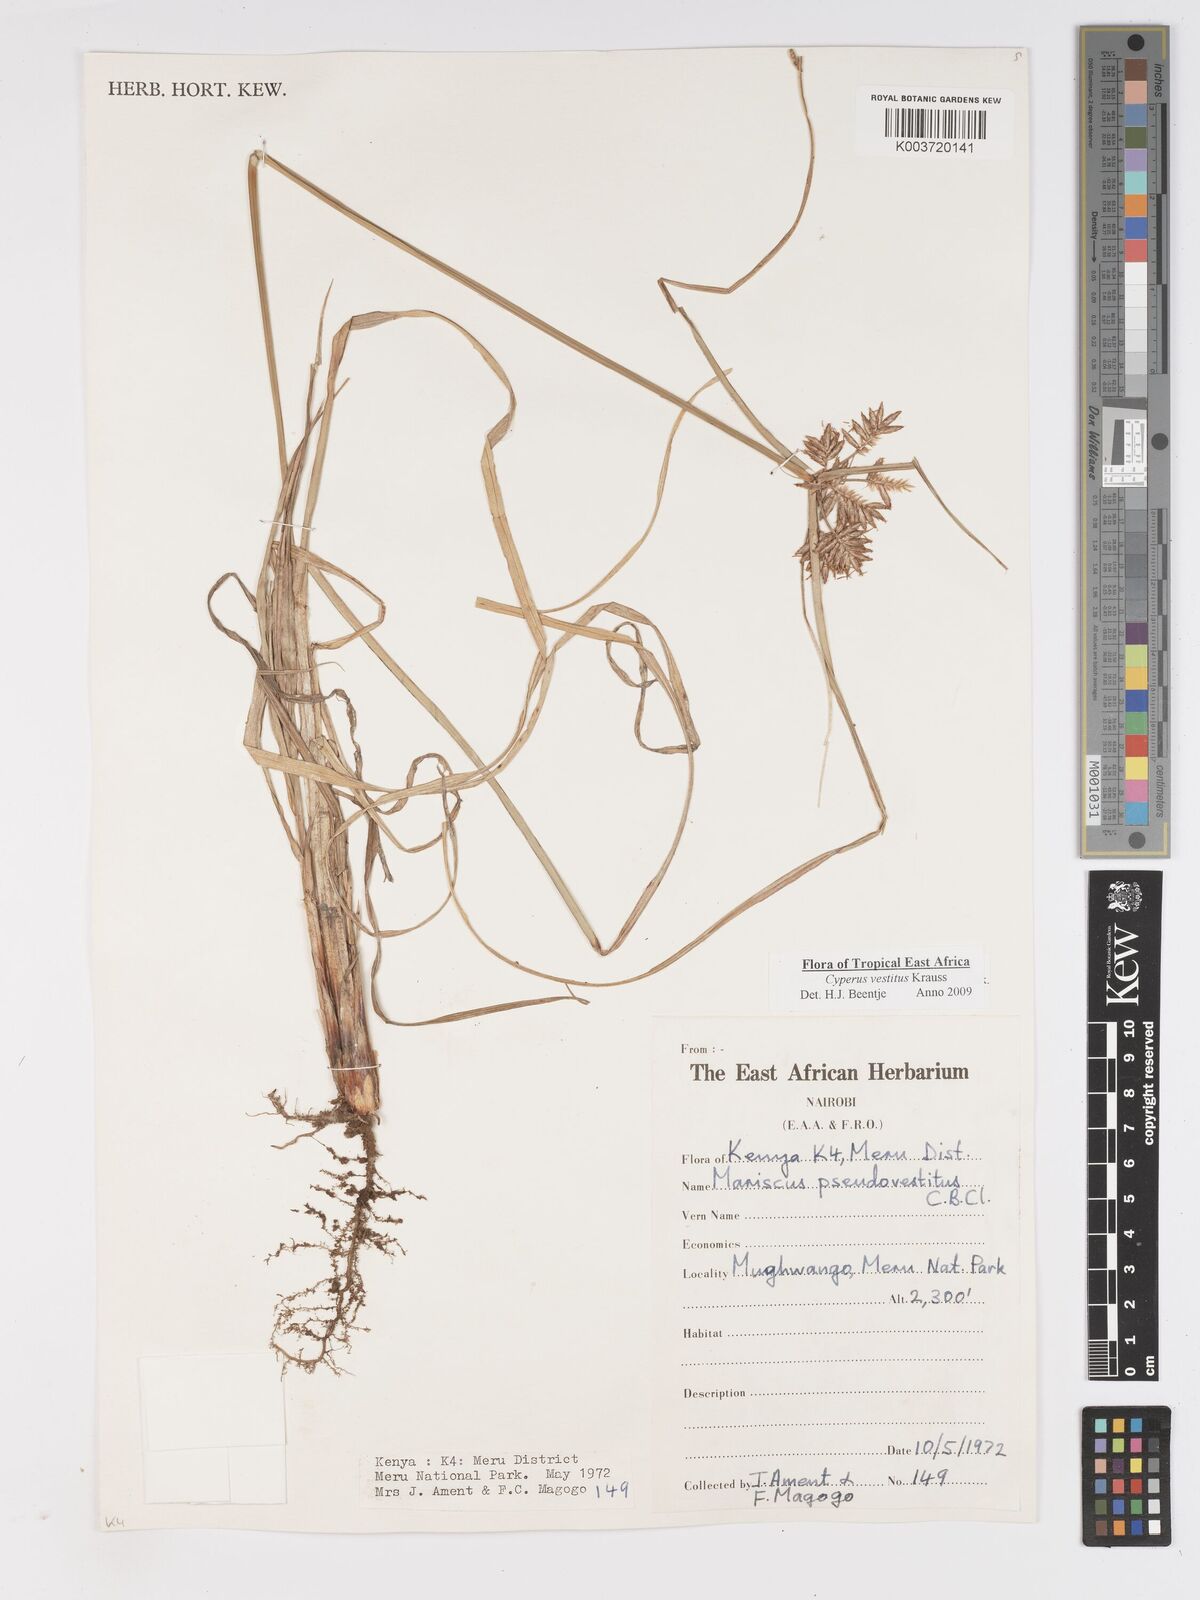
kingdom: Plantae
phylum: Tracheophyta
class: Liliopsida
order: Poales
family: Cyperaceae
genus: Cyperus
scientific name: Cyperus vestitus
